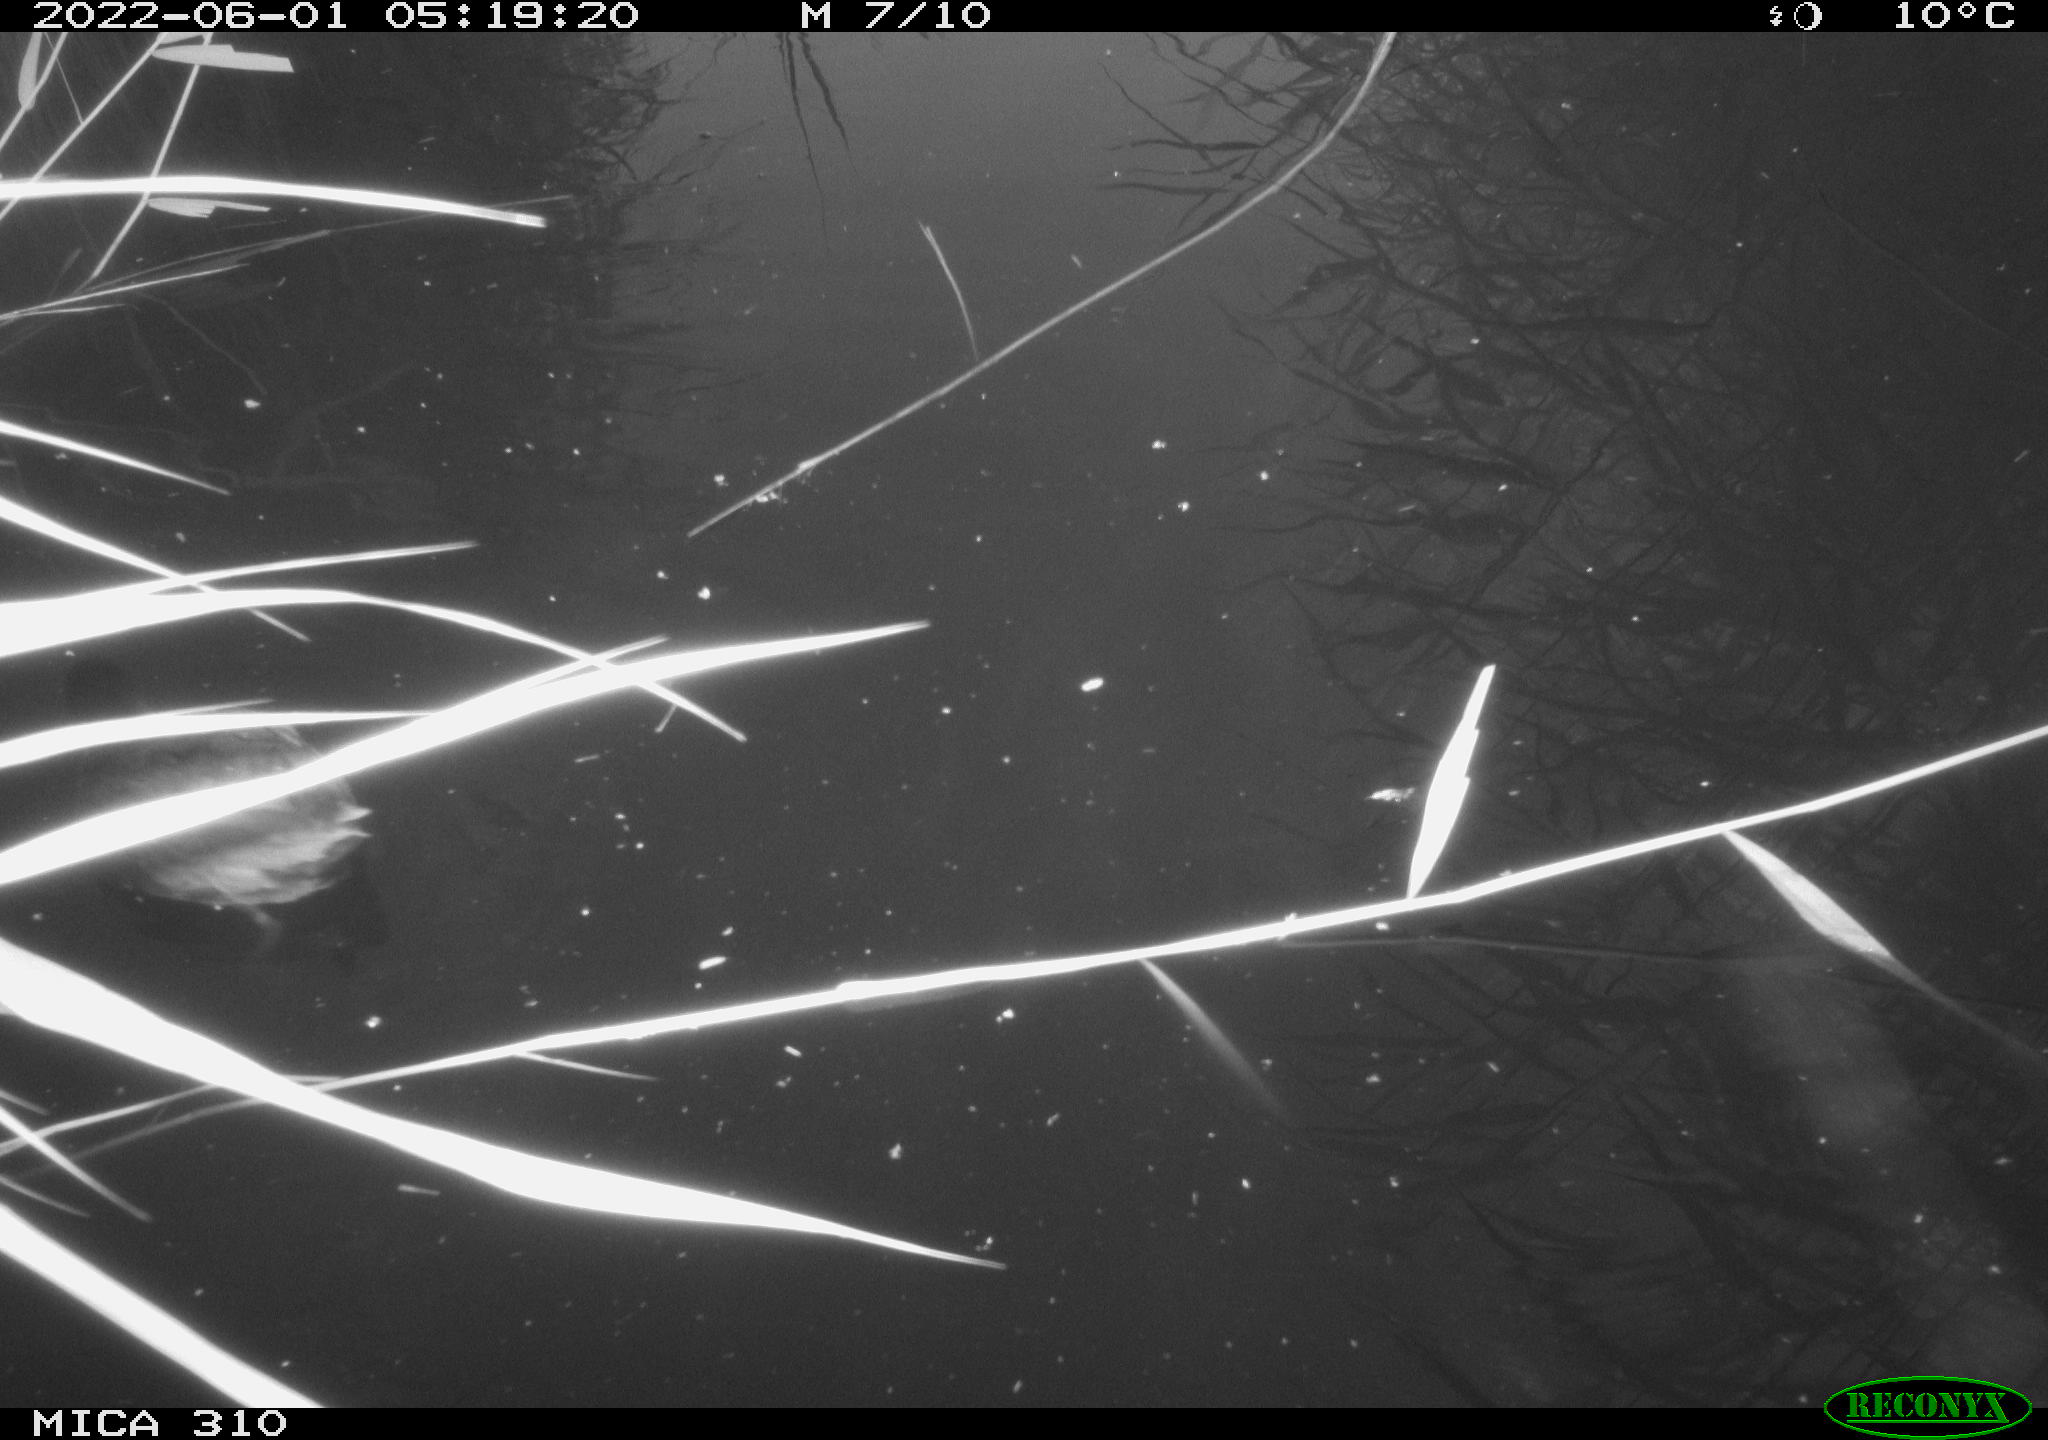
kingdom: Animalia
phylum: Chordata
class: Aves
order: Gruiformes
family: Rallidae
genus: Fulica
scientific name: Fulica atra
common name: Eurasian coot
